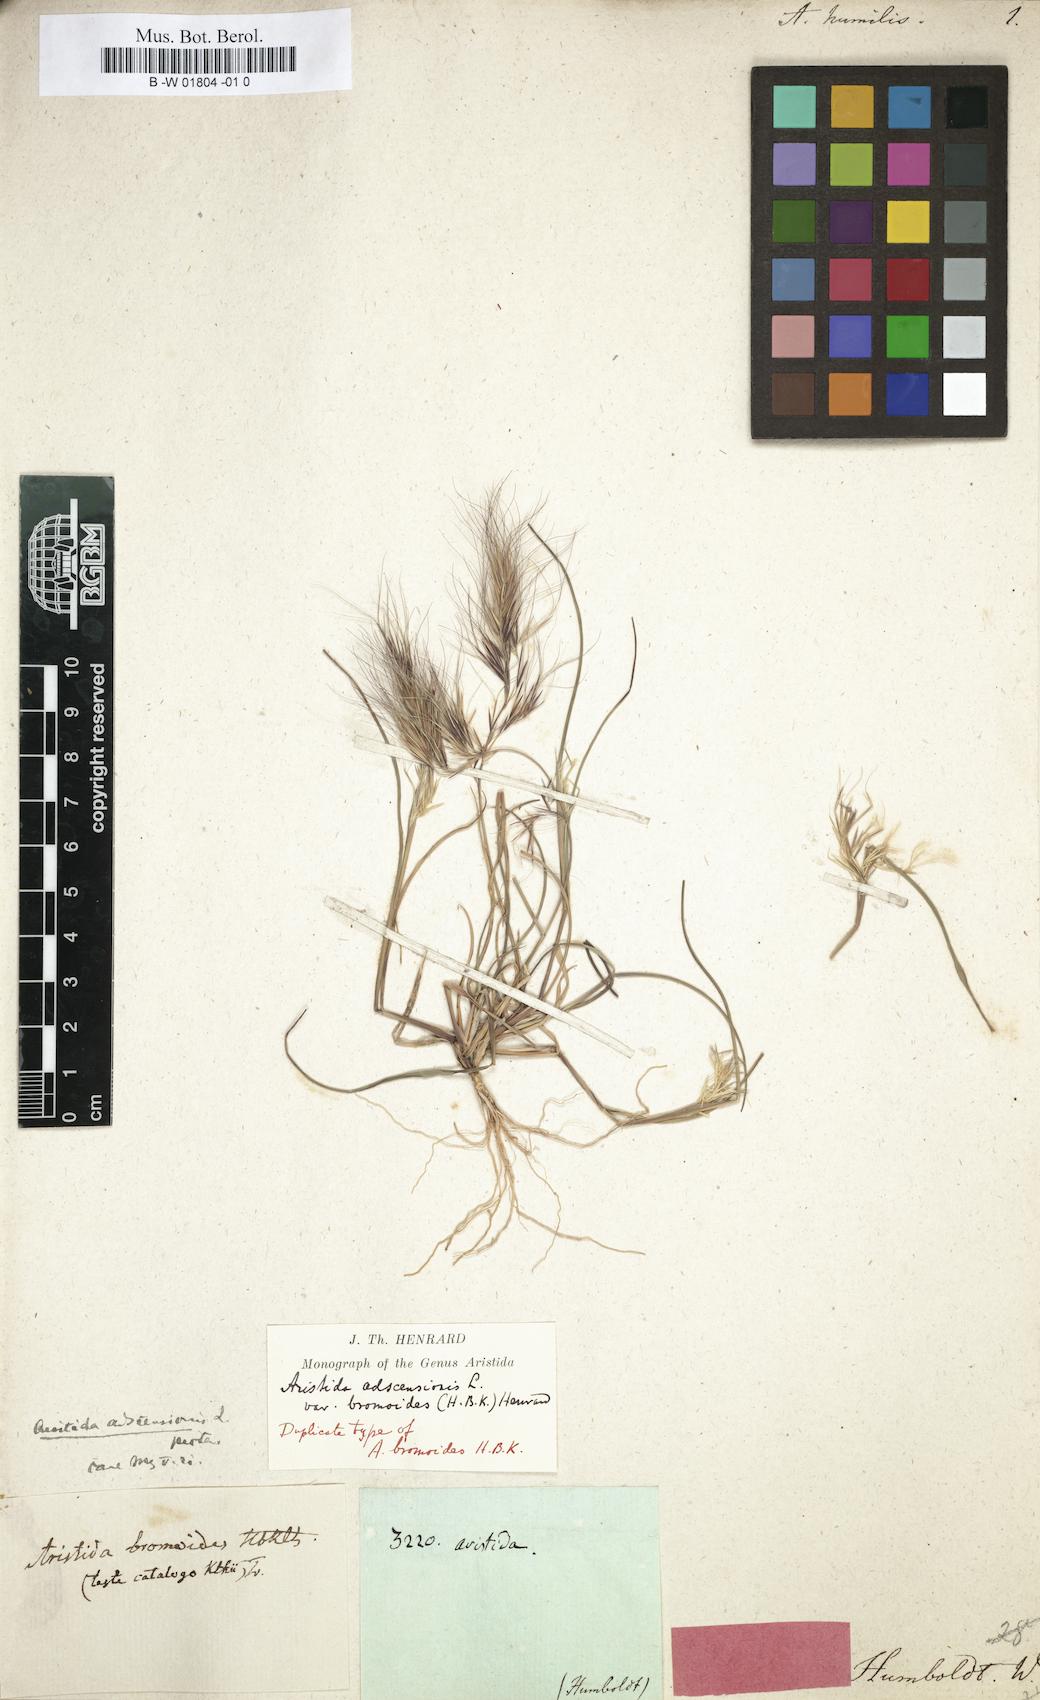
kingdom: Plantae
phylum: Tracheophyta
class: Liliopsida
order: Poales
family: Poaceae
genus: Aristida
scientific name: Aristida adscensionis
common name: Sixweeks threeawn
